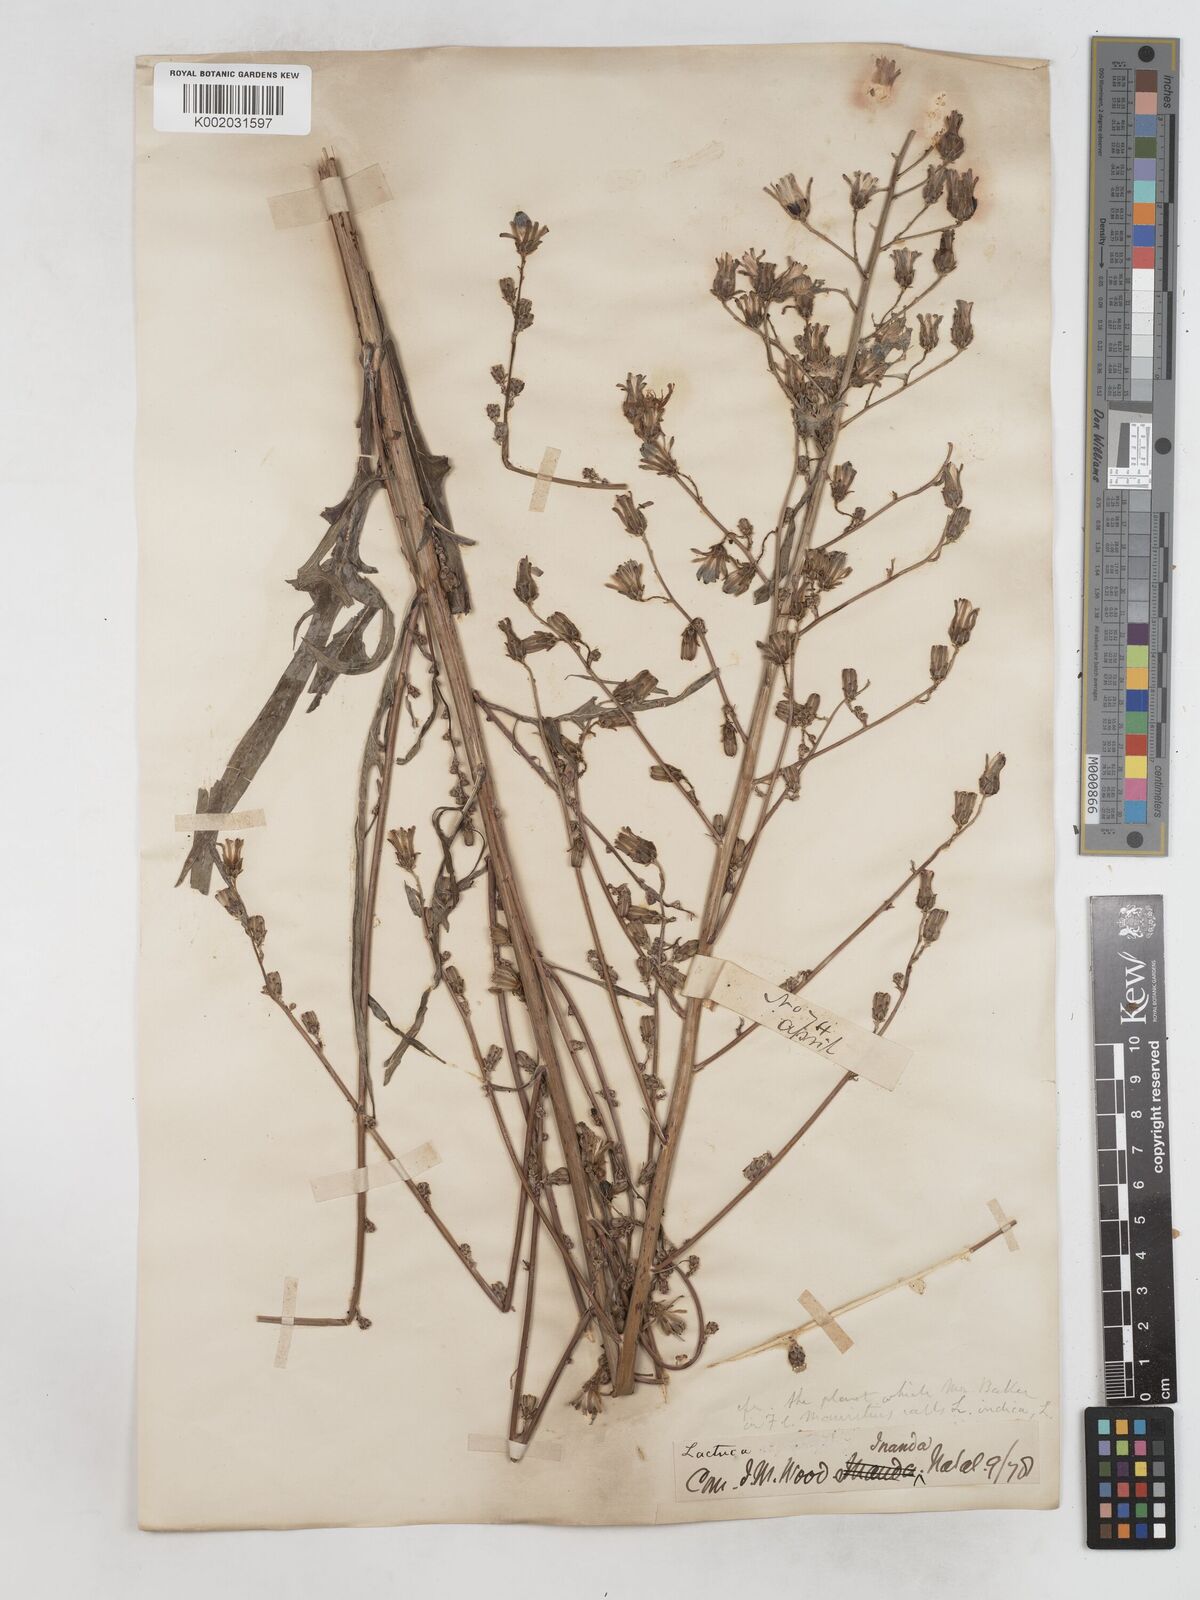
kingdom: Plantae
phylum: Tracheophyta
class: Magnoliopsida
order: Asterales
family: Asteraceae
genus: Lactuca
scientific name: Lactuca indica
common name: Wild lettuce
